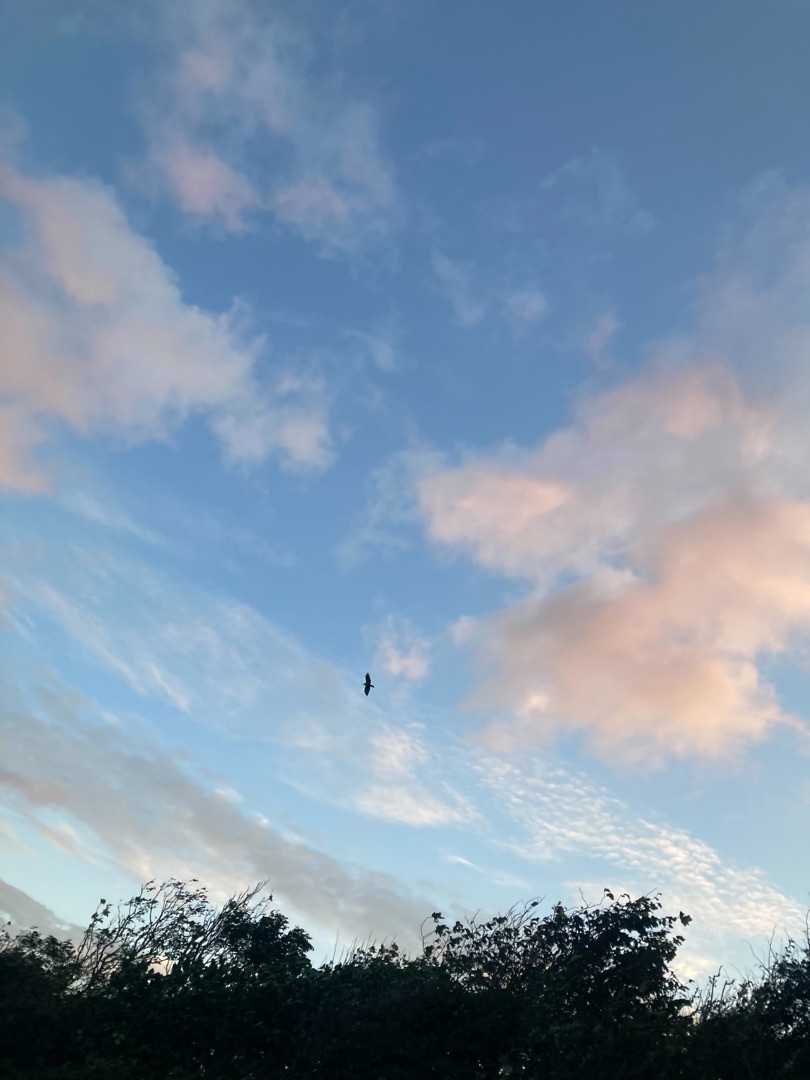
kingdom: Animalia
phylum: Chordata
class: Aves
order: Accipitriformes
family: Accipitridae
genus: Buteo
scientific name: Buteo buteo
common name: Musvåge
